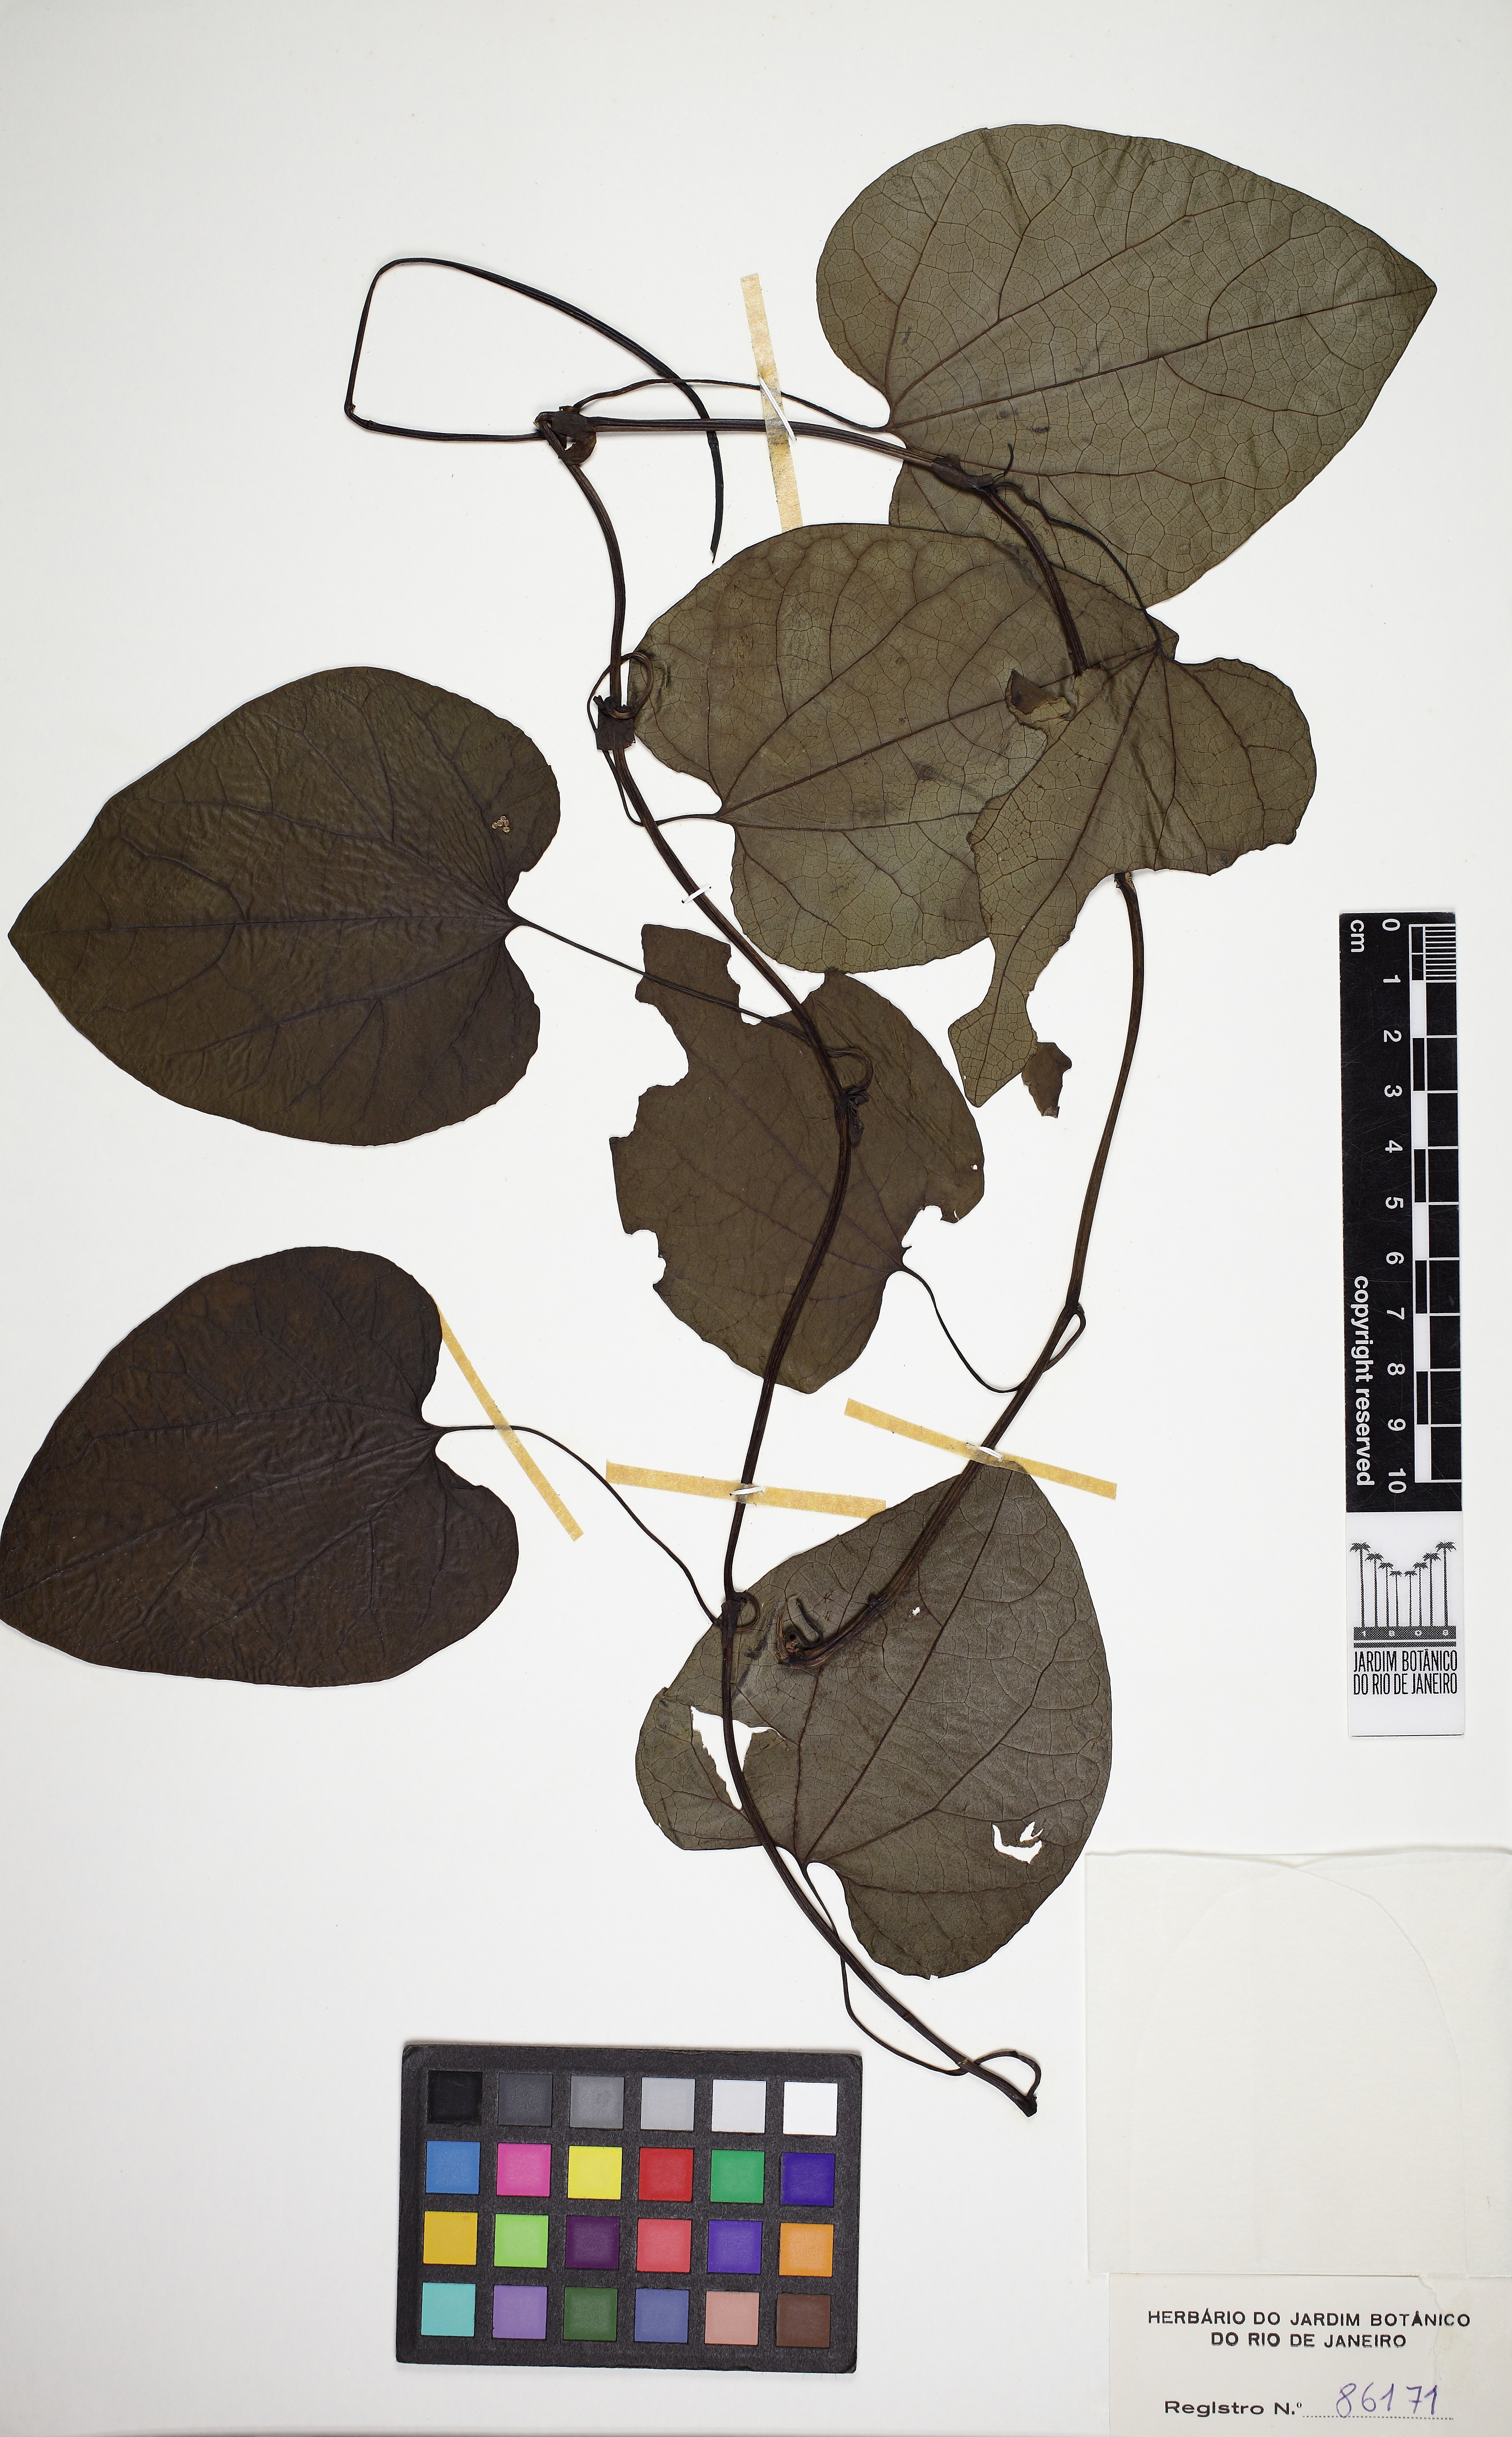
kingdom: Plantae
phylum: Tracheophyta
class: Magnoliopsida
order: Piperales
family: Aristolochiaceae
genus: Aristolochia
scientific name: Aristolochia gigantea
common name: Duckflower
